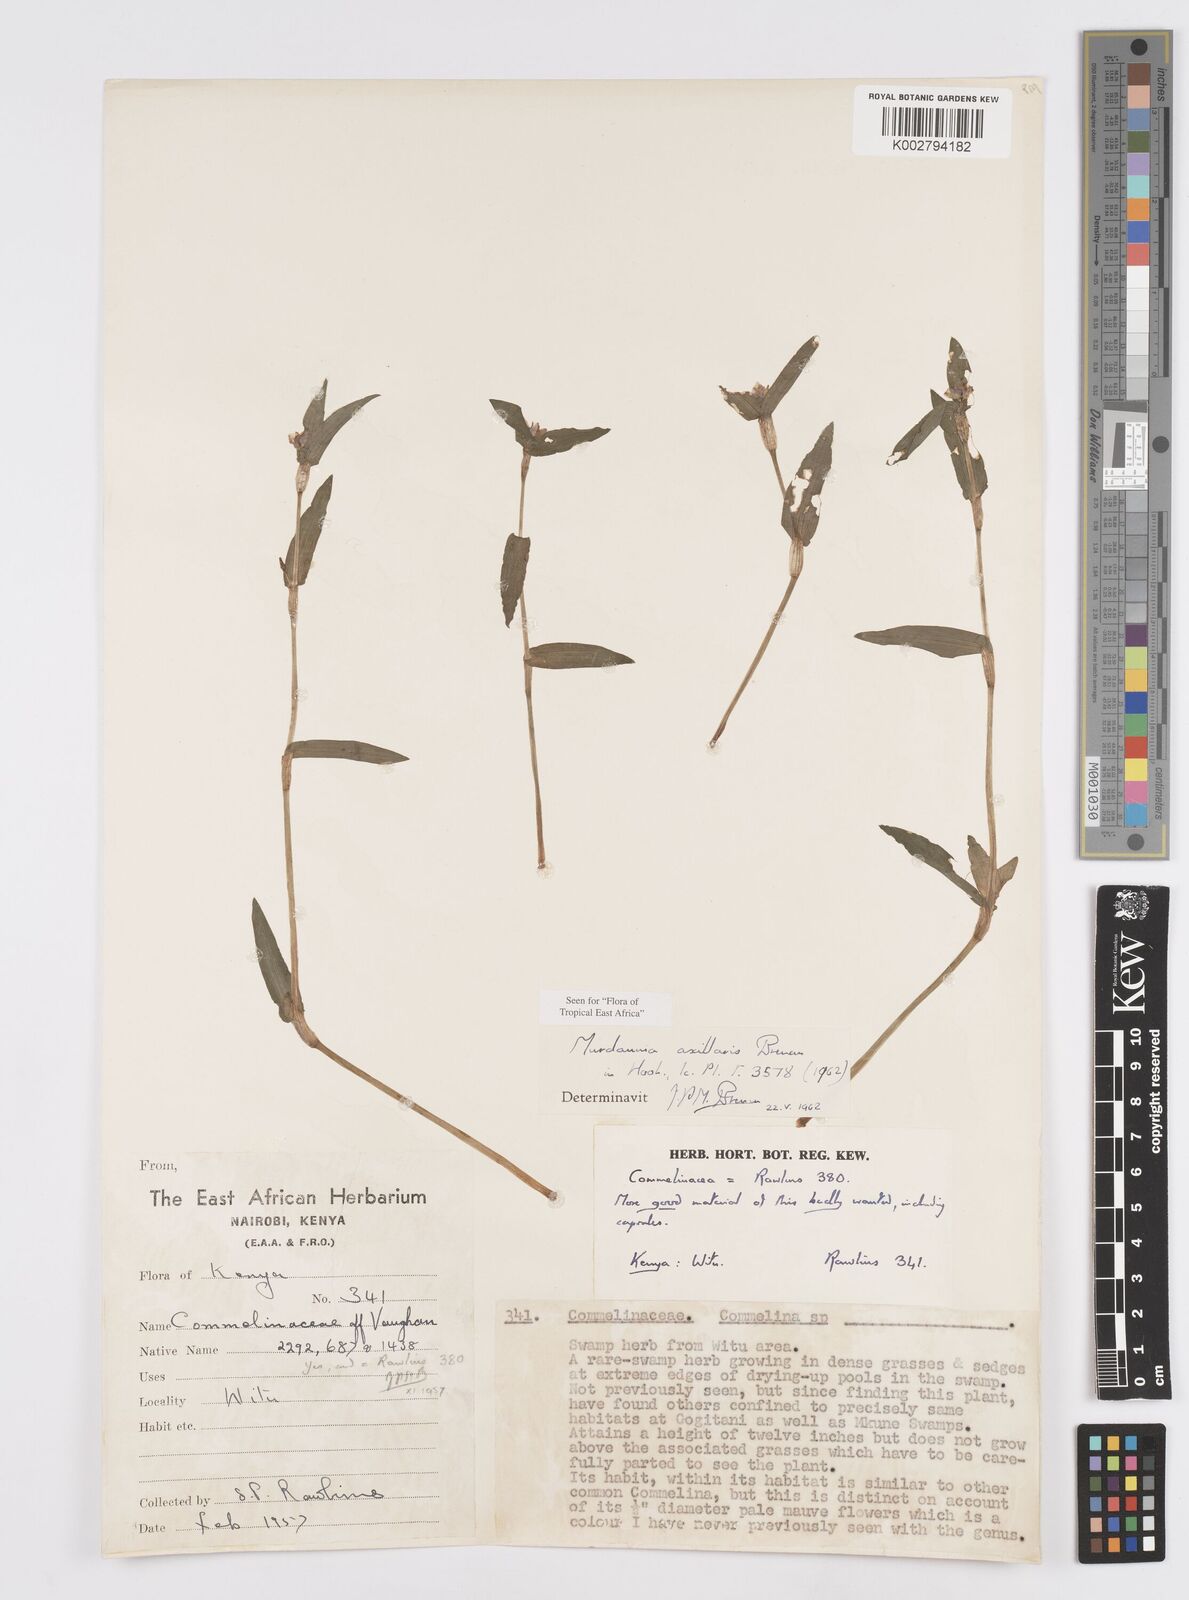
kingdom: Plantae
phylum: Tracheophyta
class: Liliopsida
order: Commelinales
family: Commelinaceae
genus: Murdannia
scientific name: Murdannia axillaris
